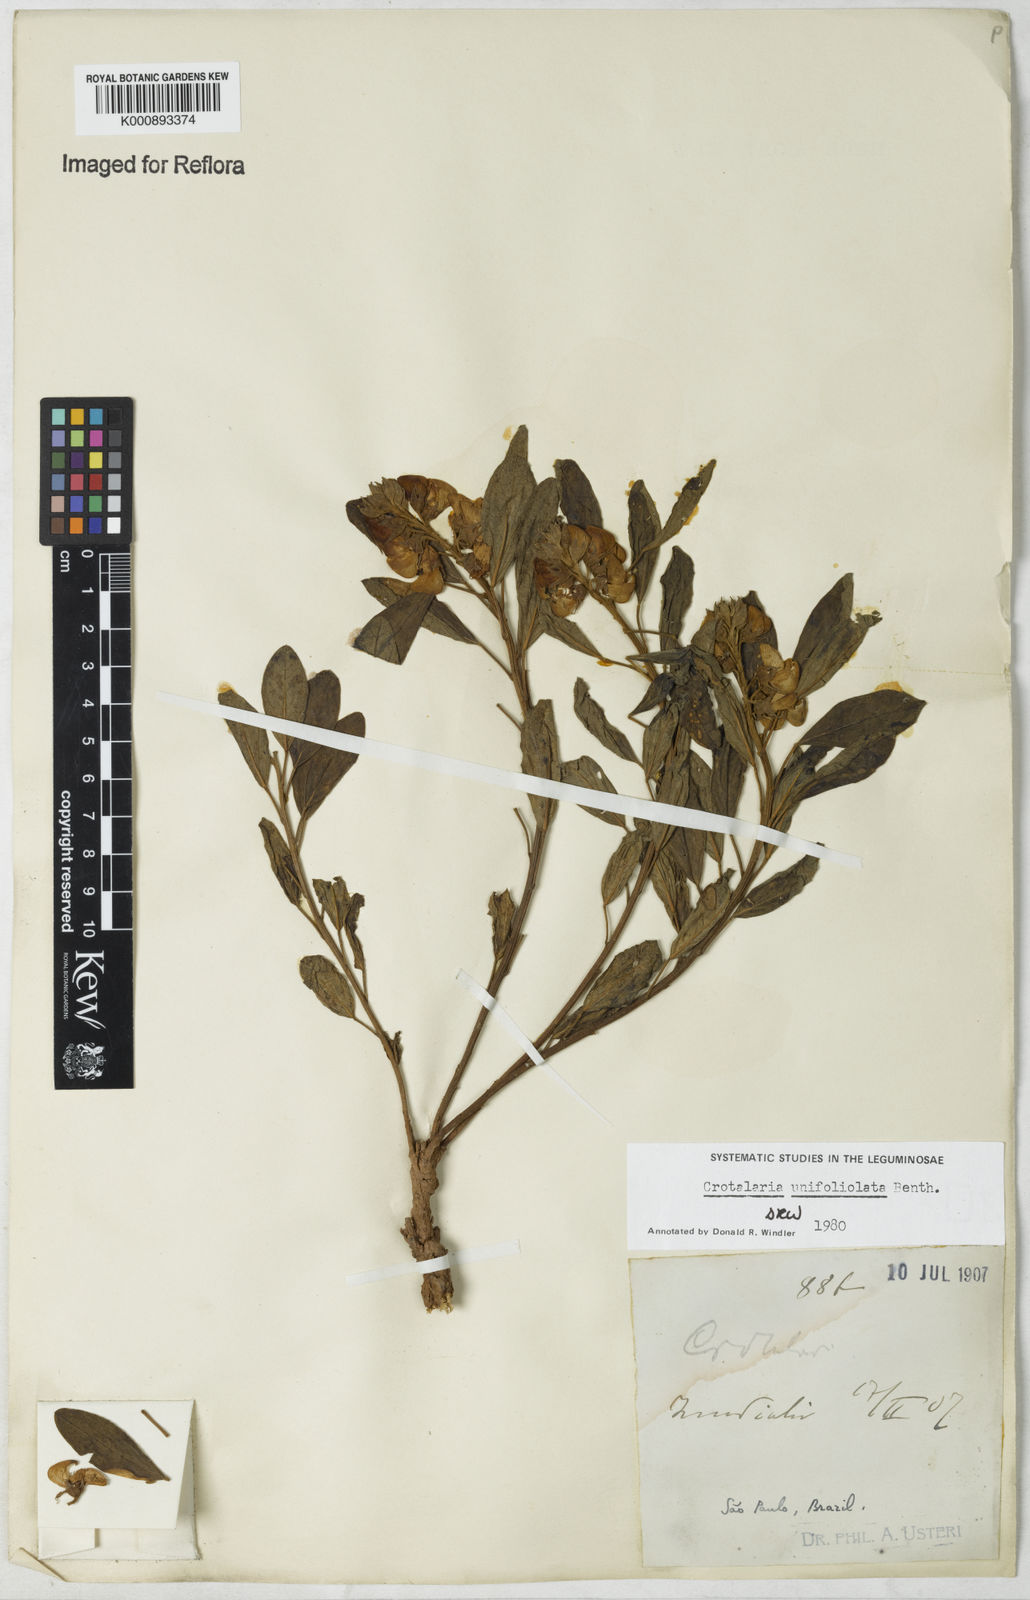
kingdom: Plantae
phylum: Tracheophyta
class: Magnoliopsida
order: Fabales
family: Fabaceae
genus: Crotalaria
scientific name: Crotalaria unifoliolata
